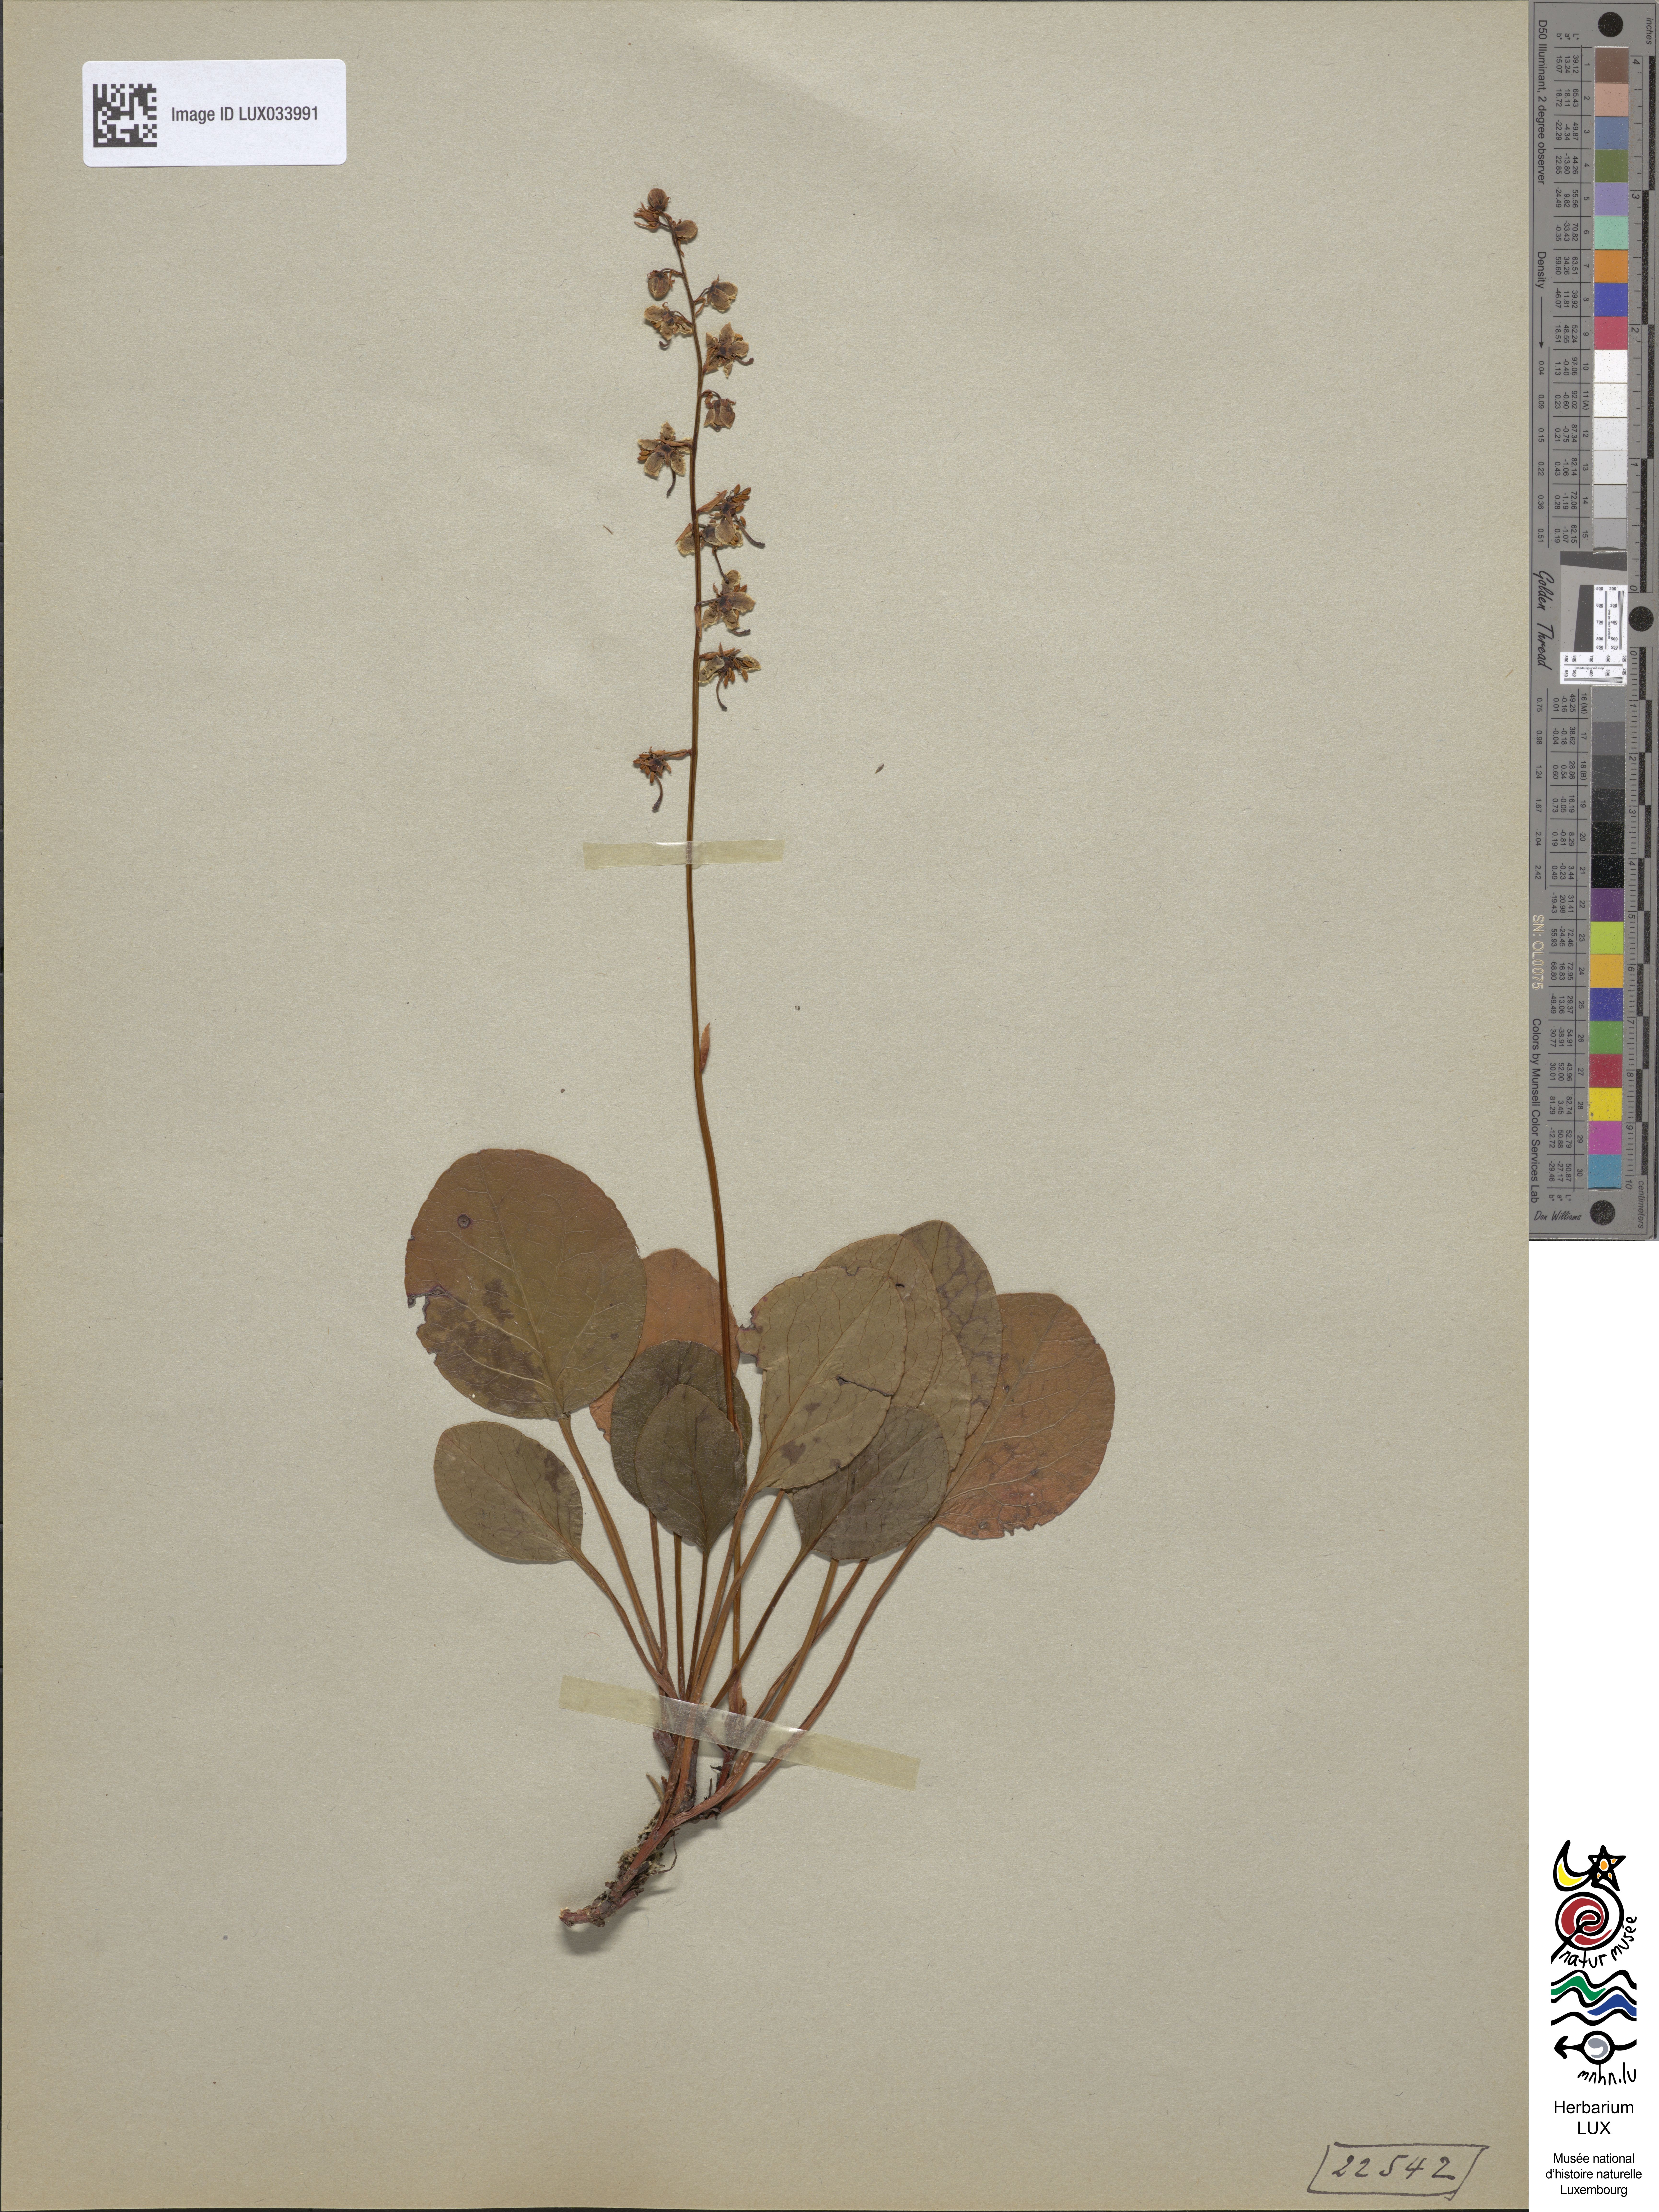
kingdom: Plantae
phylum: Tracheophyta
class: Magnoliopsida
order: Ericales
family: Ericaceae
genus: Pyrola
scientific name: Pyrola rotundifolia
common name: Round-leaved wintergreen
